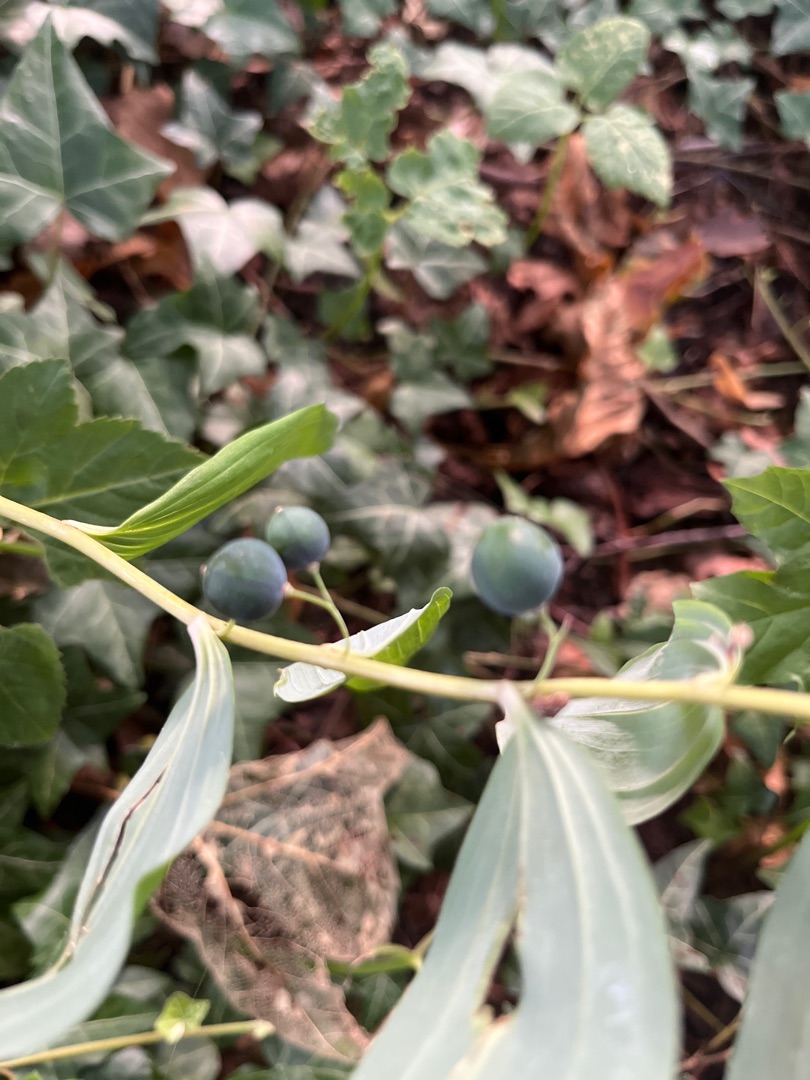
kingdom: Plantae
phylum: Tracheophyta
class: Liliopsida
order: Asparagales
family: Asparagaceae
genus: Polygonatum
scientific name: Polygonatum multiflorum
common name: Stor konval
